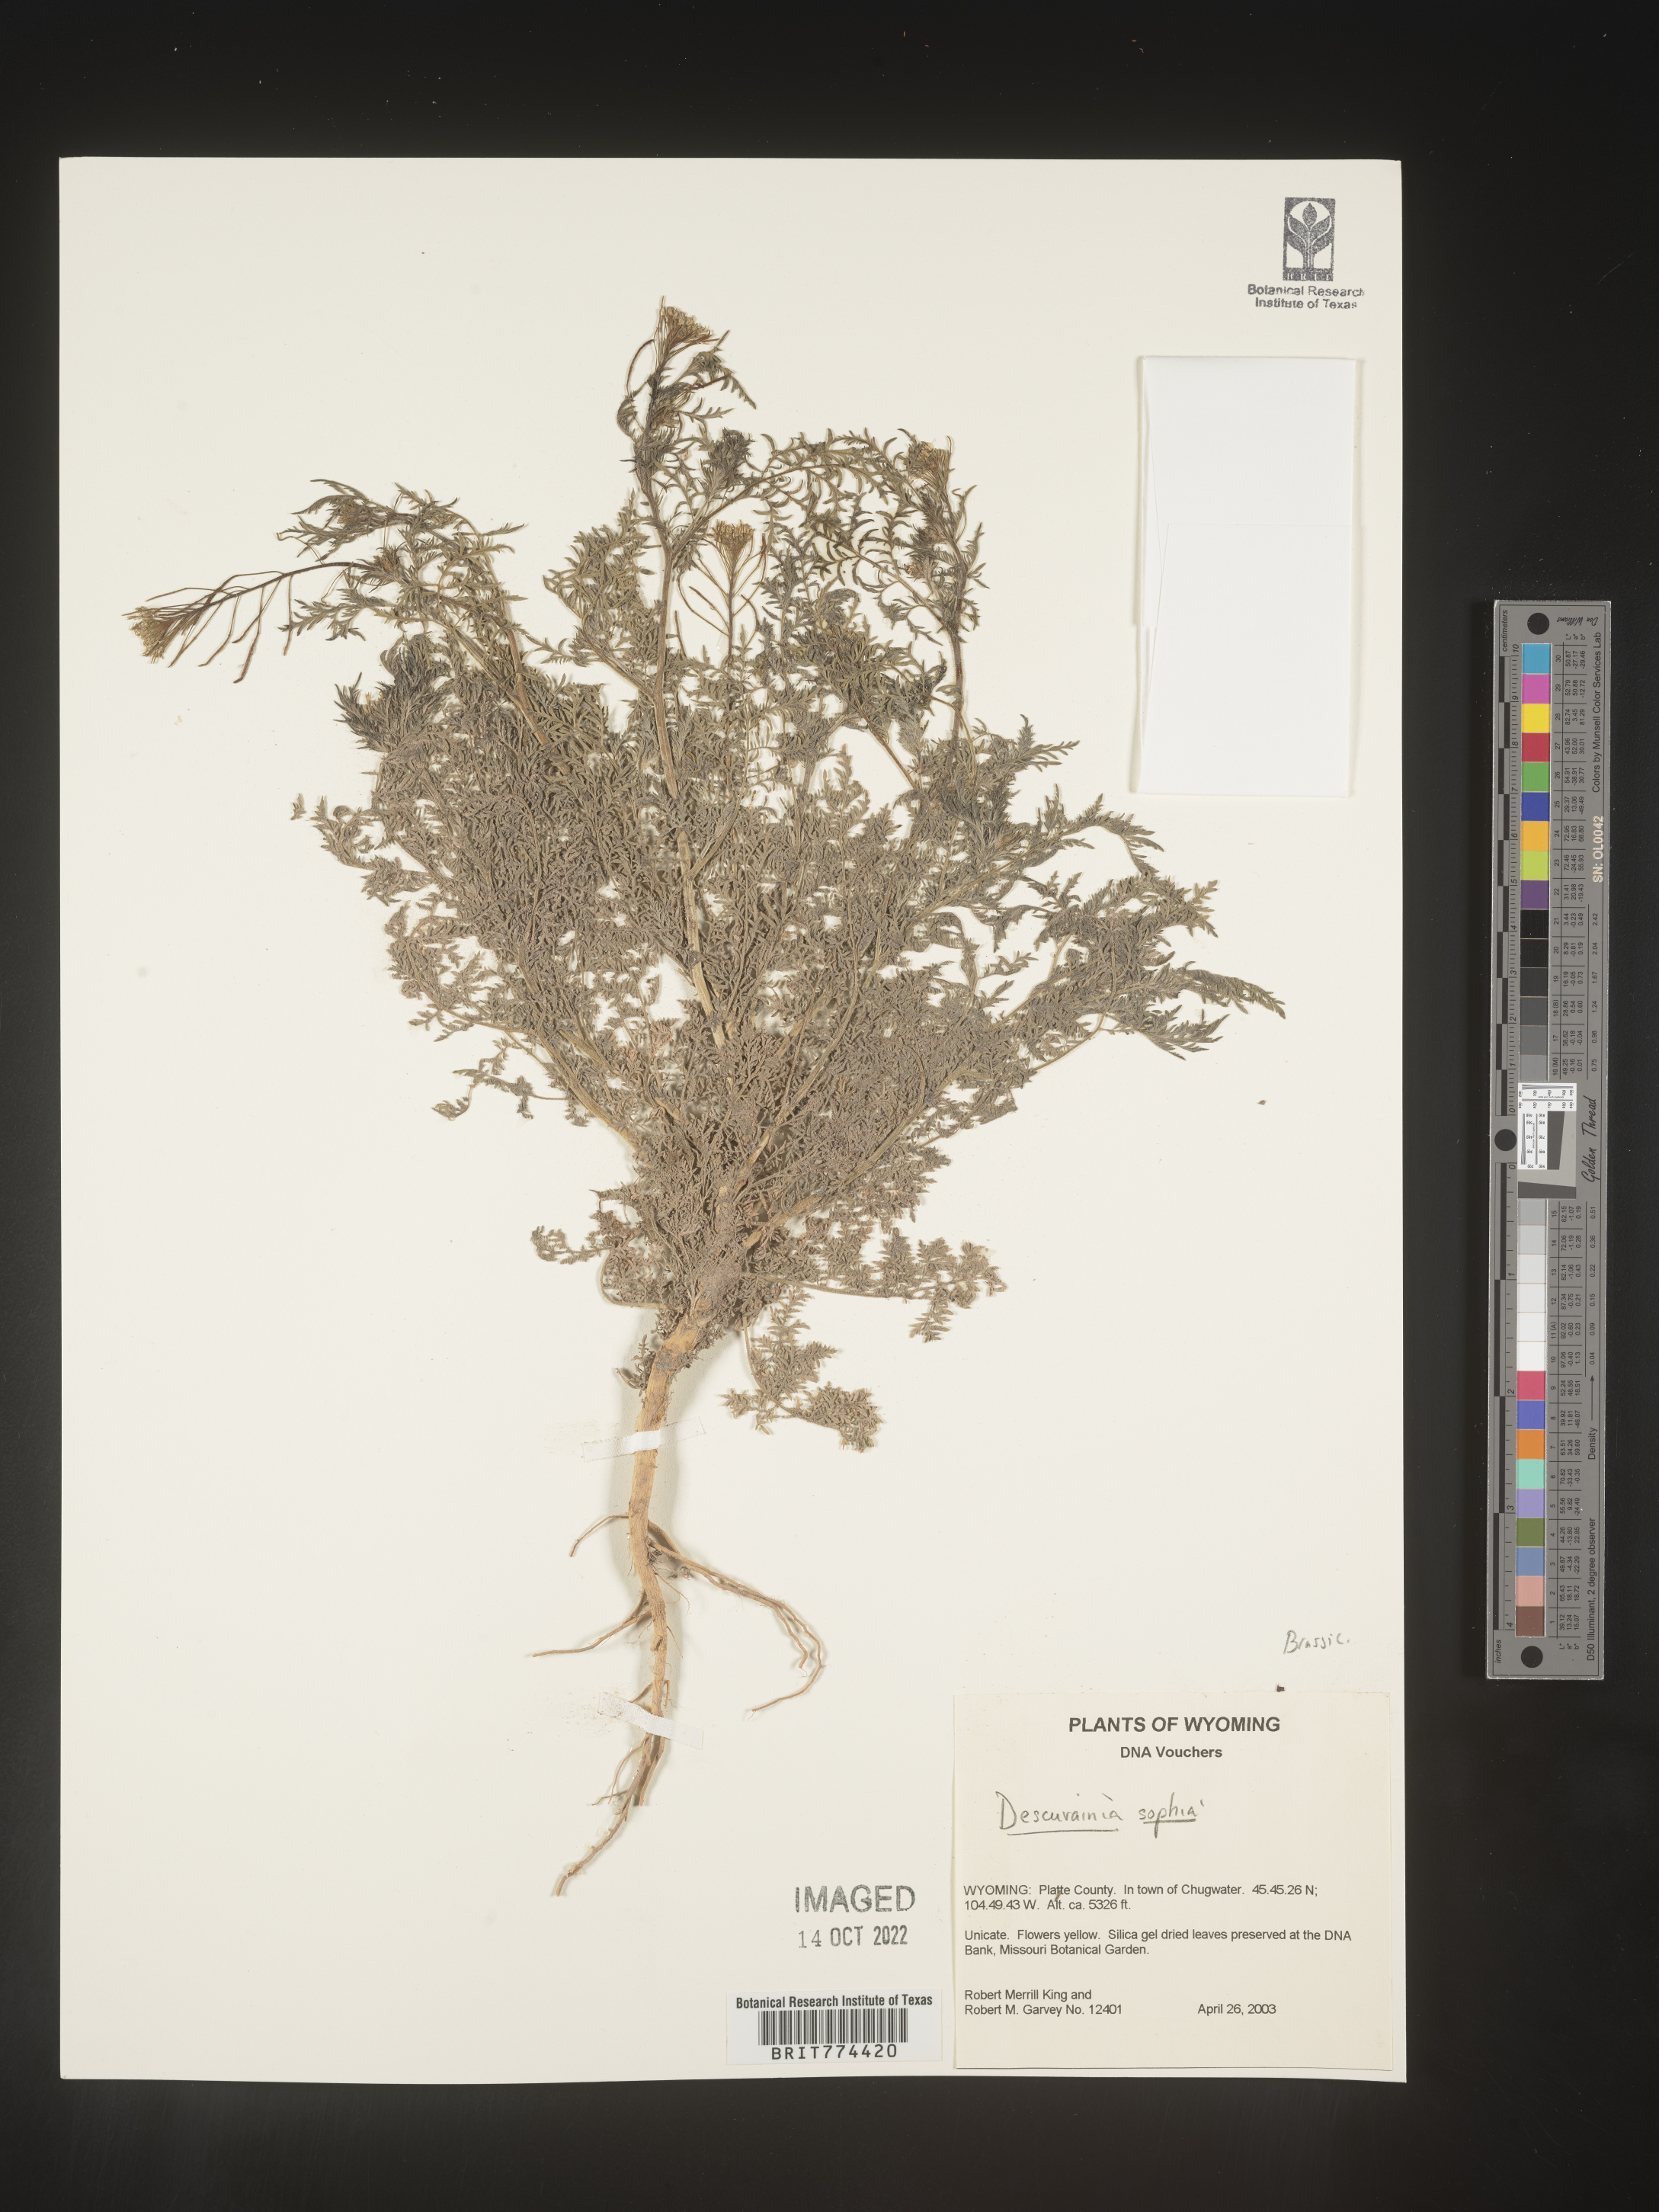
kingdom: Plantae
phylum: Tracheophyta
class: Magnoliopsida
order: Brassicales
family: Brassicaceae
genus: Descurainia
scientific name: Descurainia sophia
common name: Flixweed
